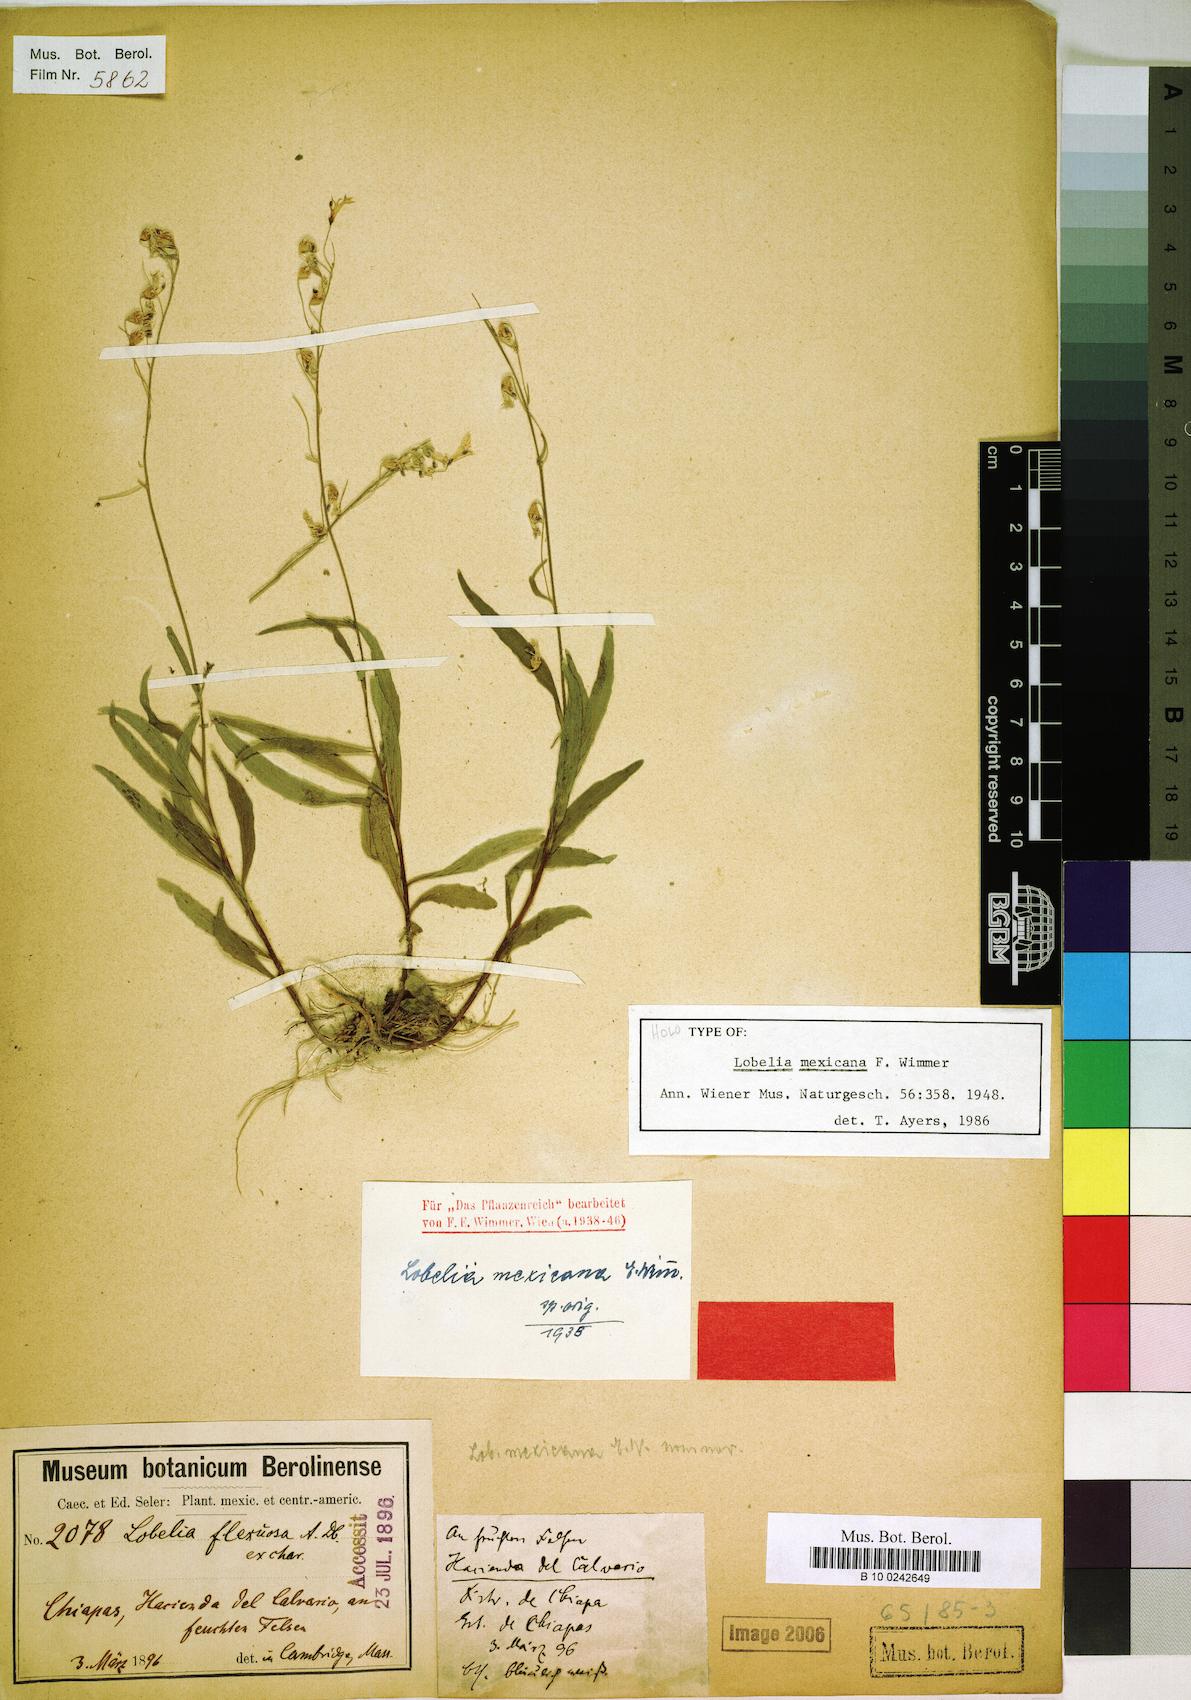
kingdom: Plantae
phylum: Tracheophyta
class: Magnoliopsida
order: Asterales
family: Campanulaceae
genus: Lobelia
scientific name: Lobelia mexicana
